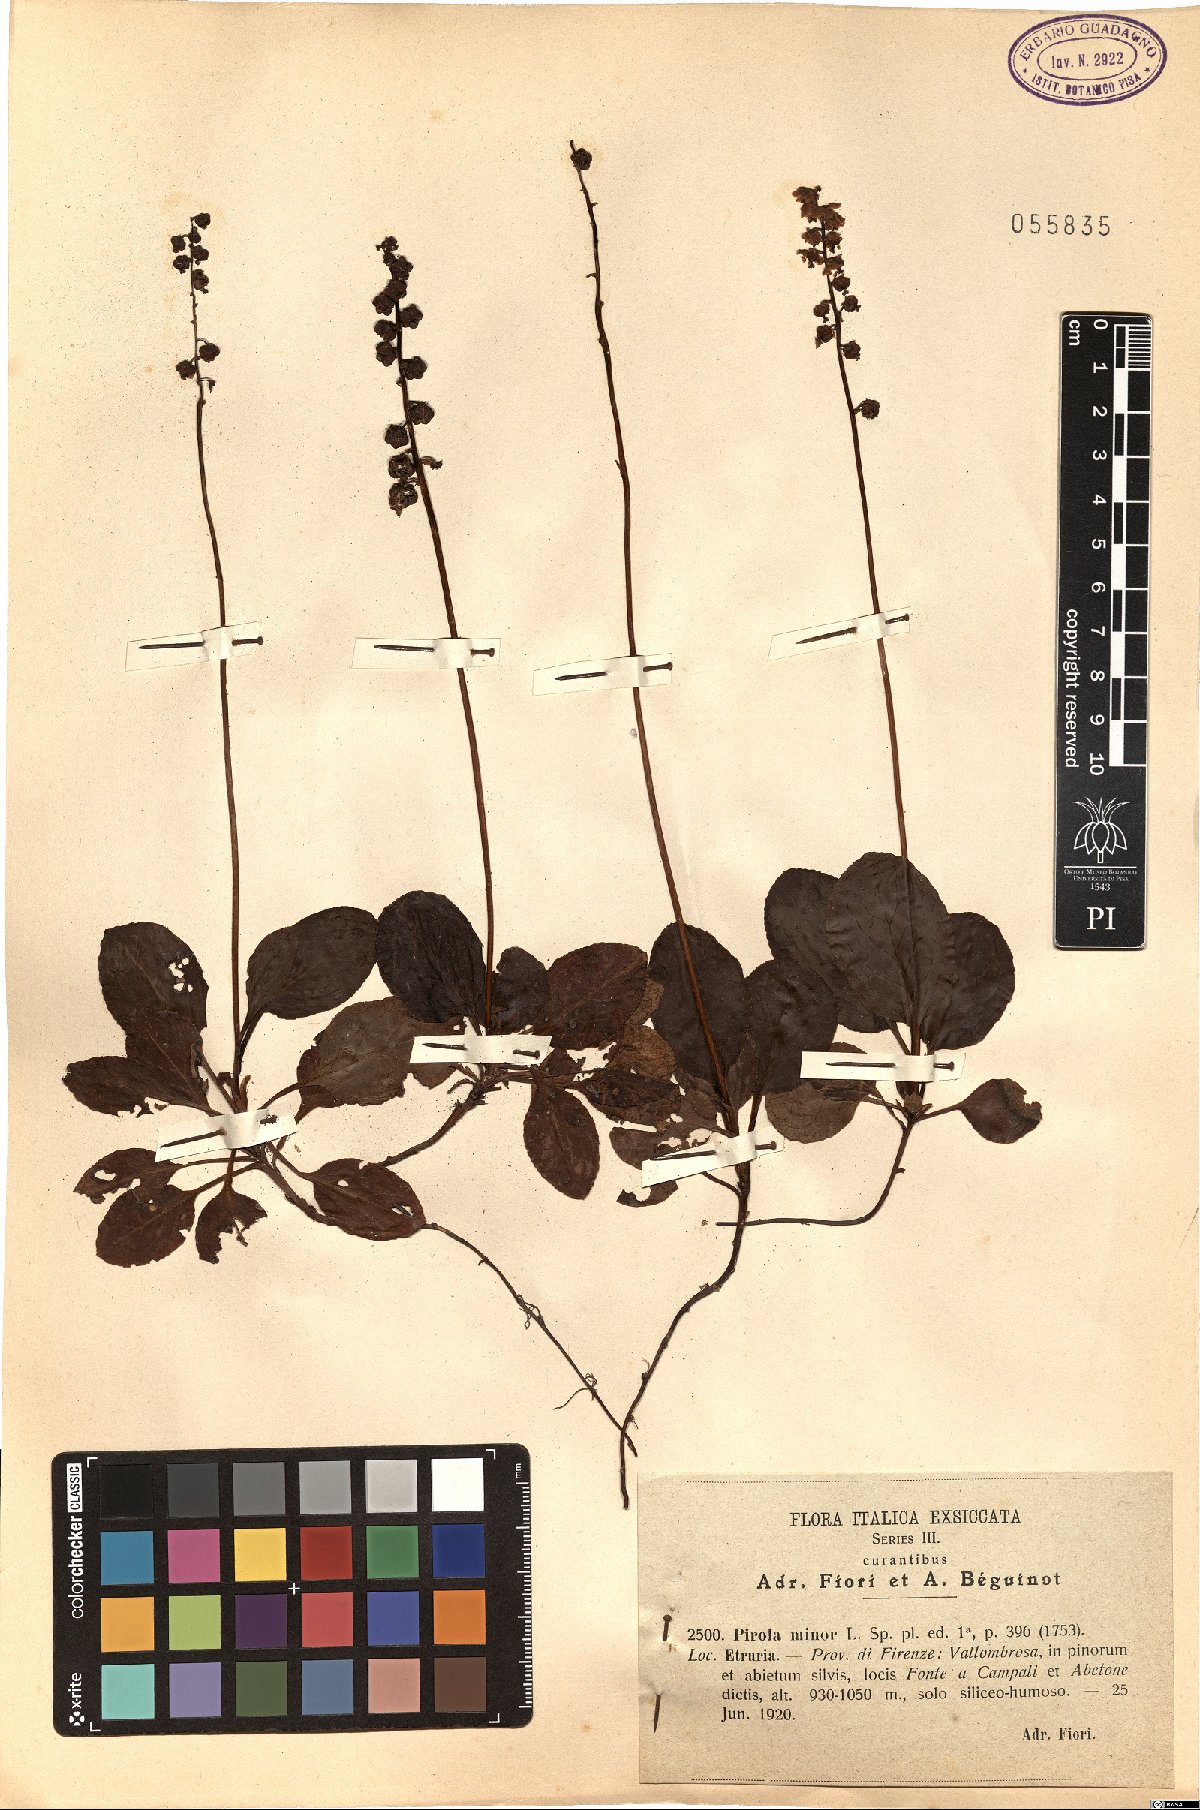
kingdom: Plantae
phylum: Tracheophyta
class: Magnoliopsida
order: Ericales
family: Ericaceae
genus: Pyrola
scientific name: Pyrola minor
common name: Common wintergreen
